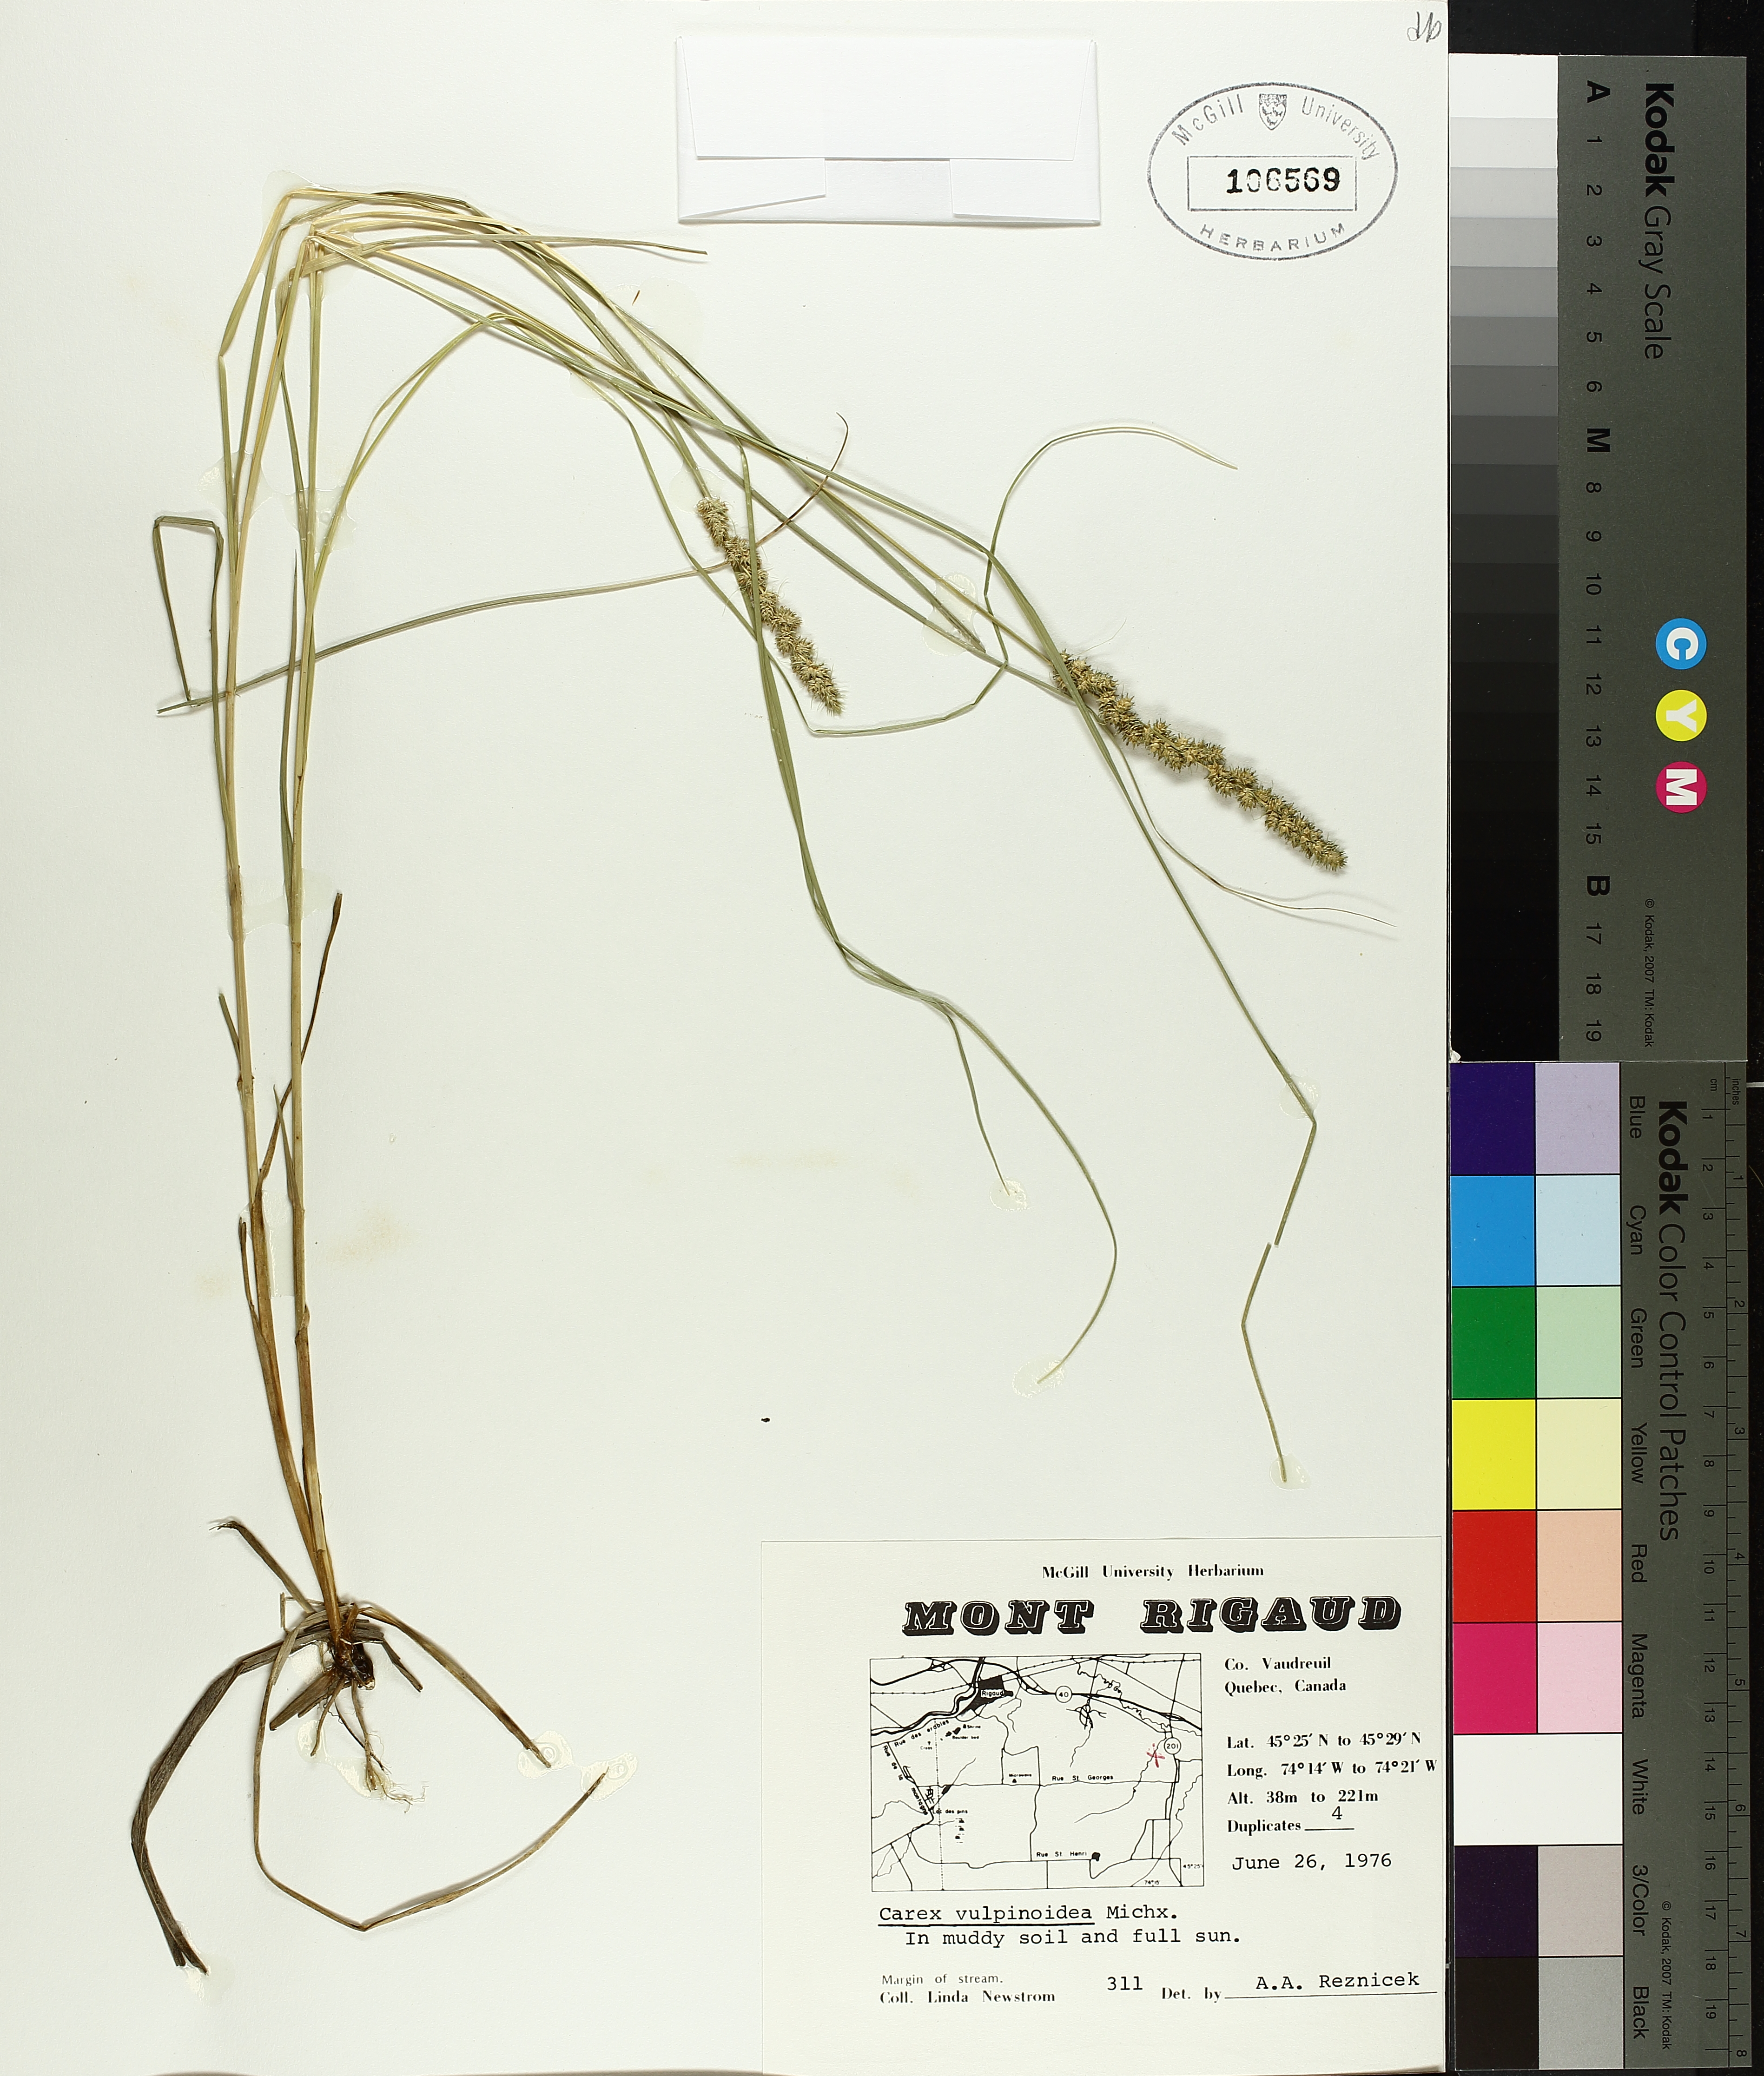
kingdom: Plantae
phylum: Tracheophyta
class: Liliopsida
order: Poales
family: Cyperaceae
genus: Carex
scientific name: Carex vulpinoidea
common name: American fox-sedge
